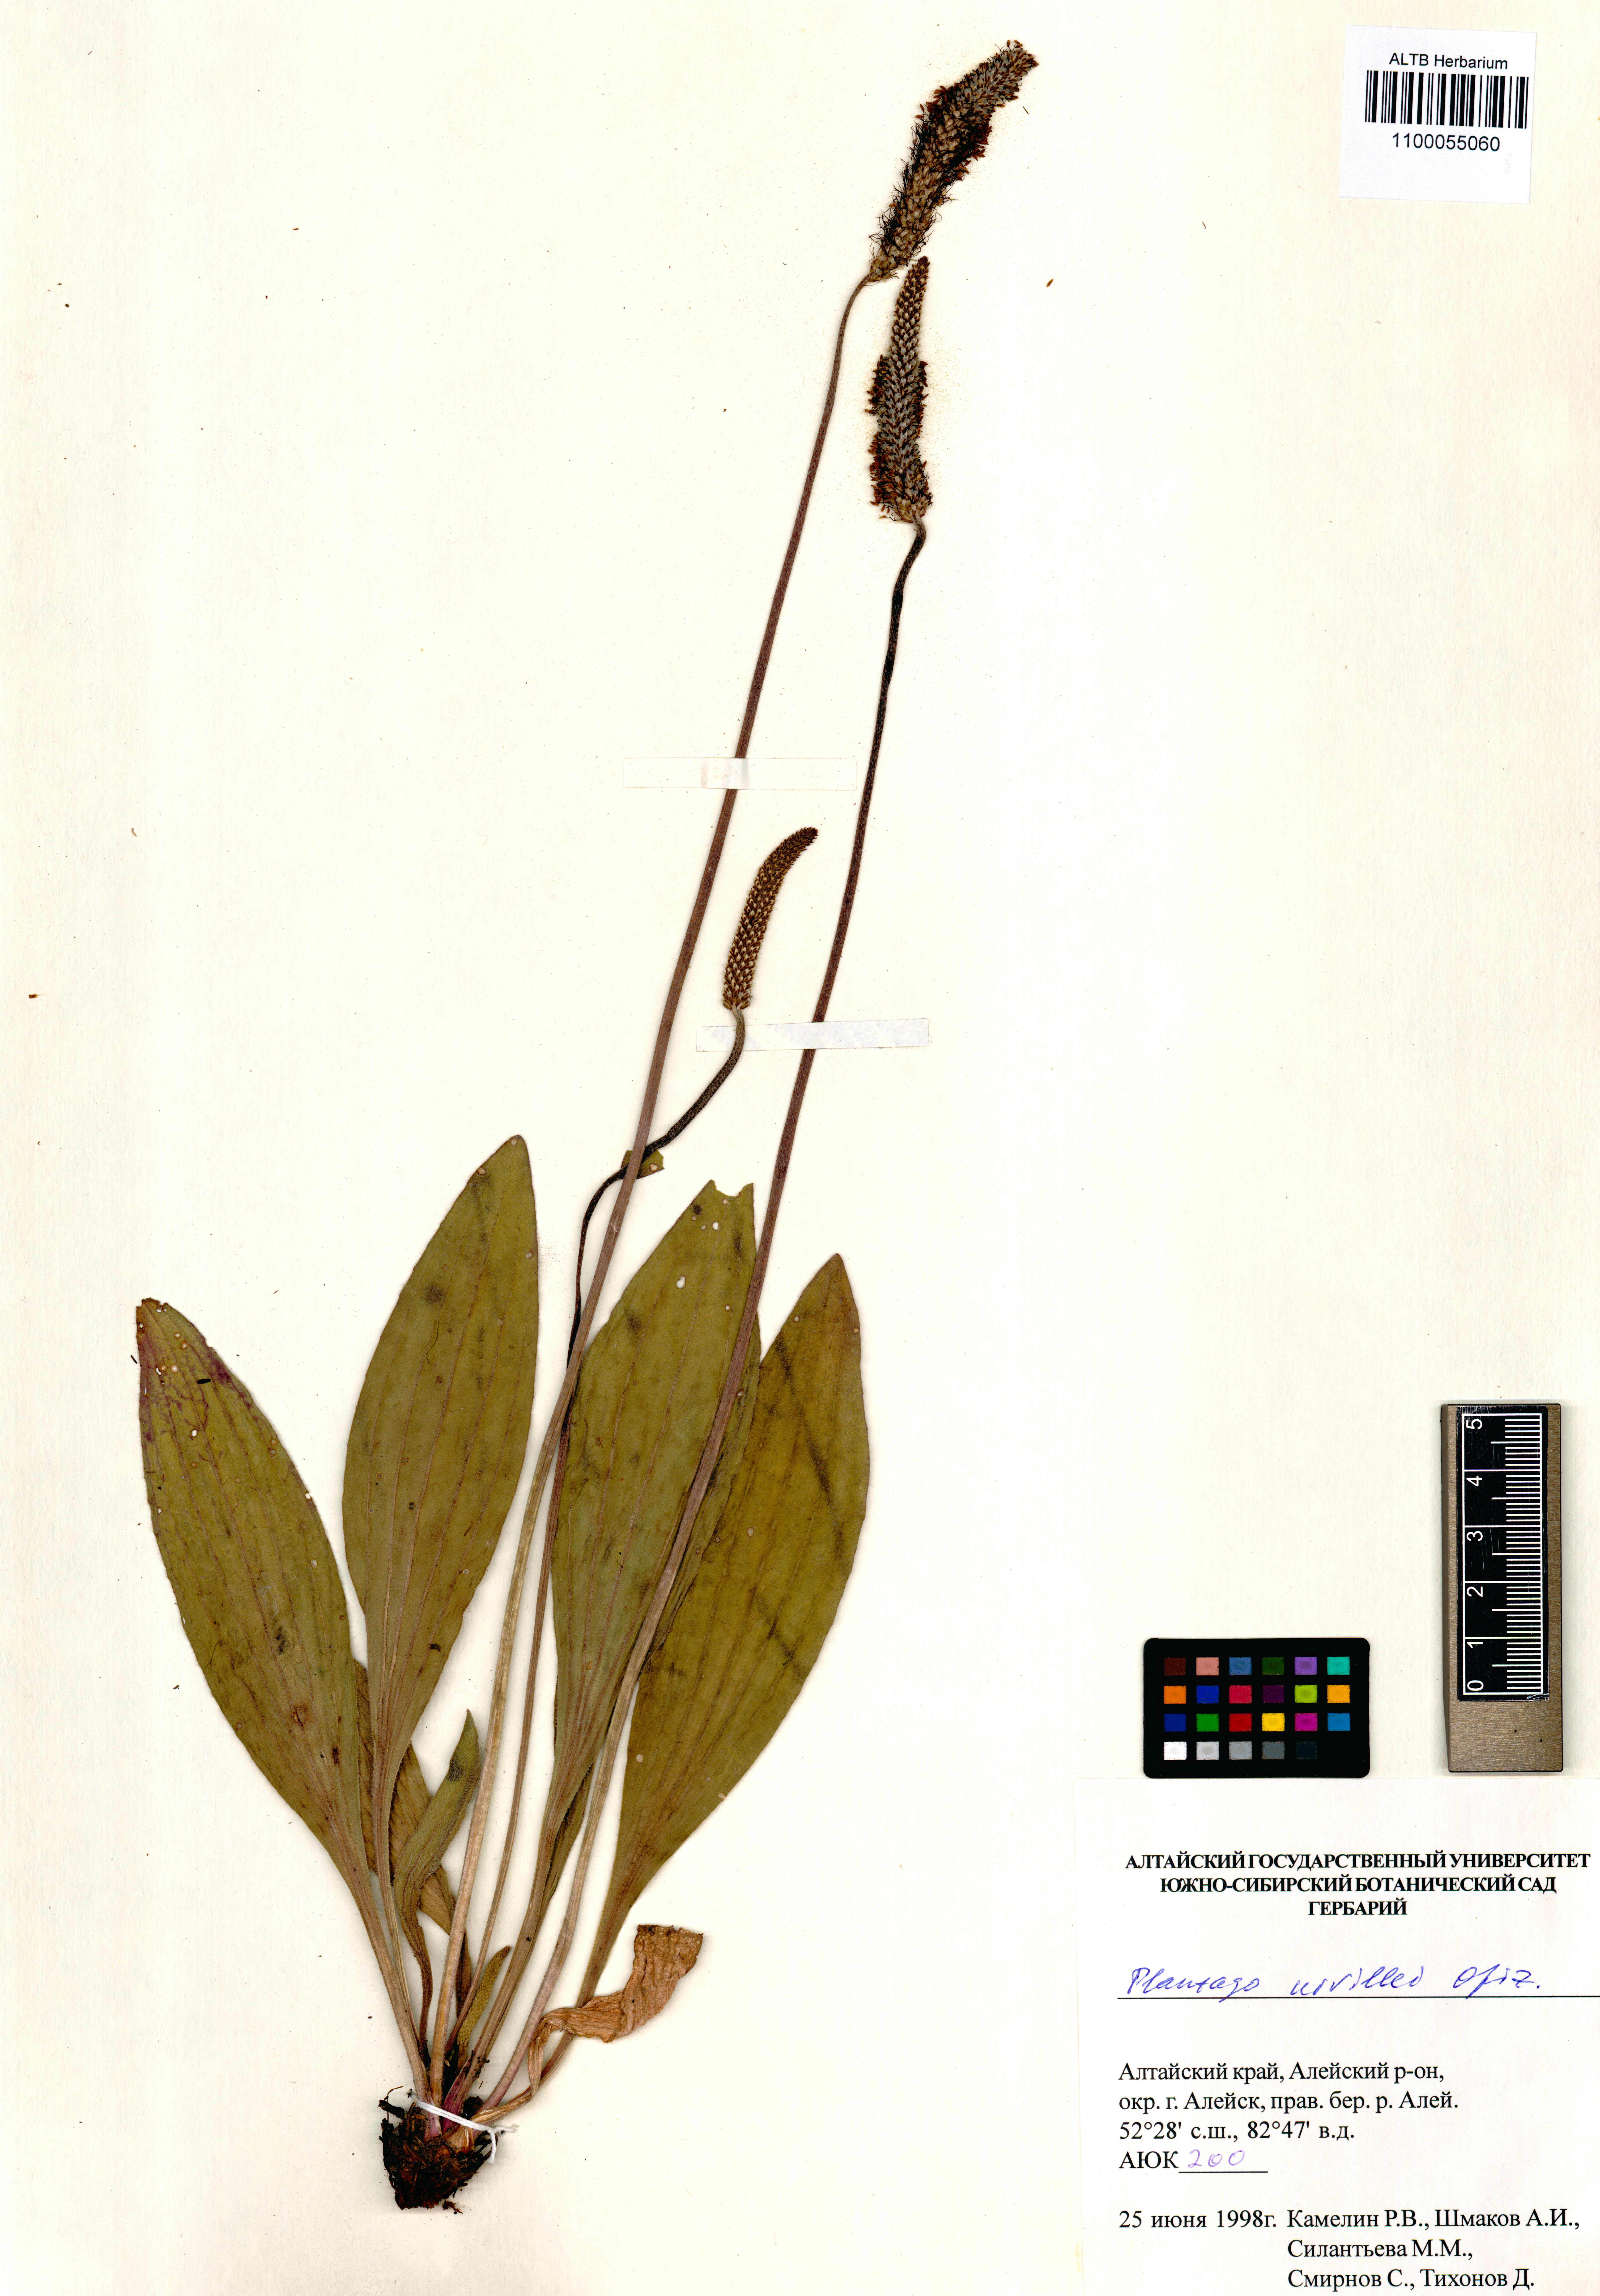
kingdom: Plantae
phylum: Tracheophyta
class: Magnoliopsida
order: Lamiales
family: Plantaginaceae
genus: Plantago
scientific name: Plantago urvillei
